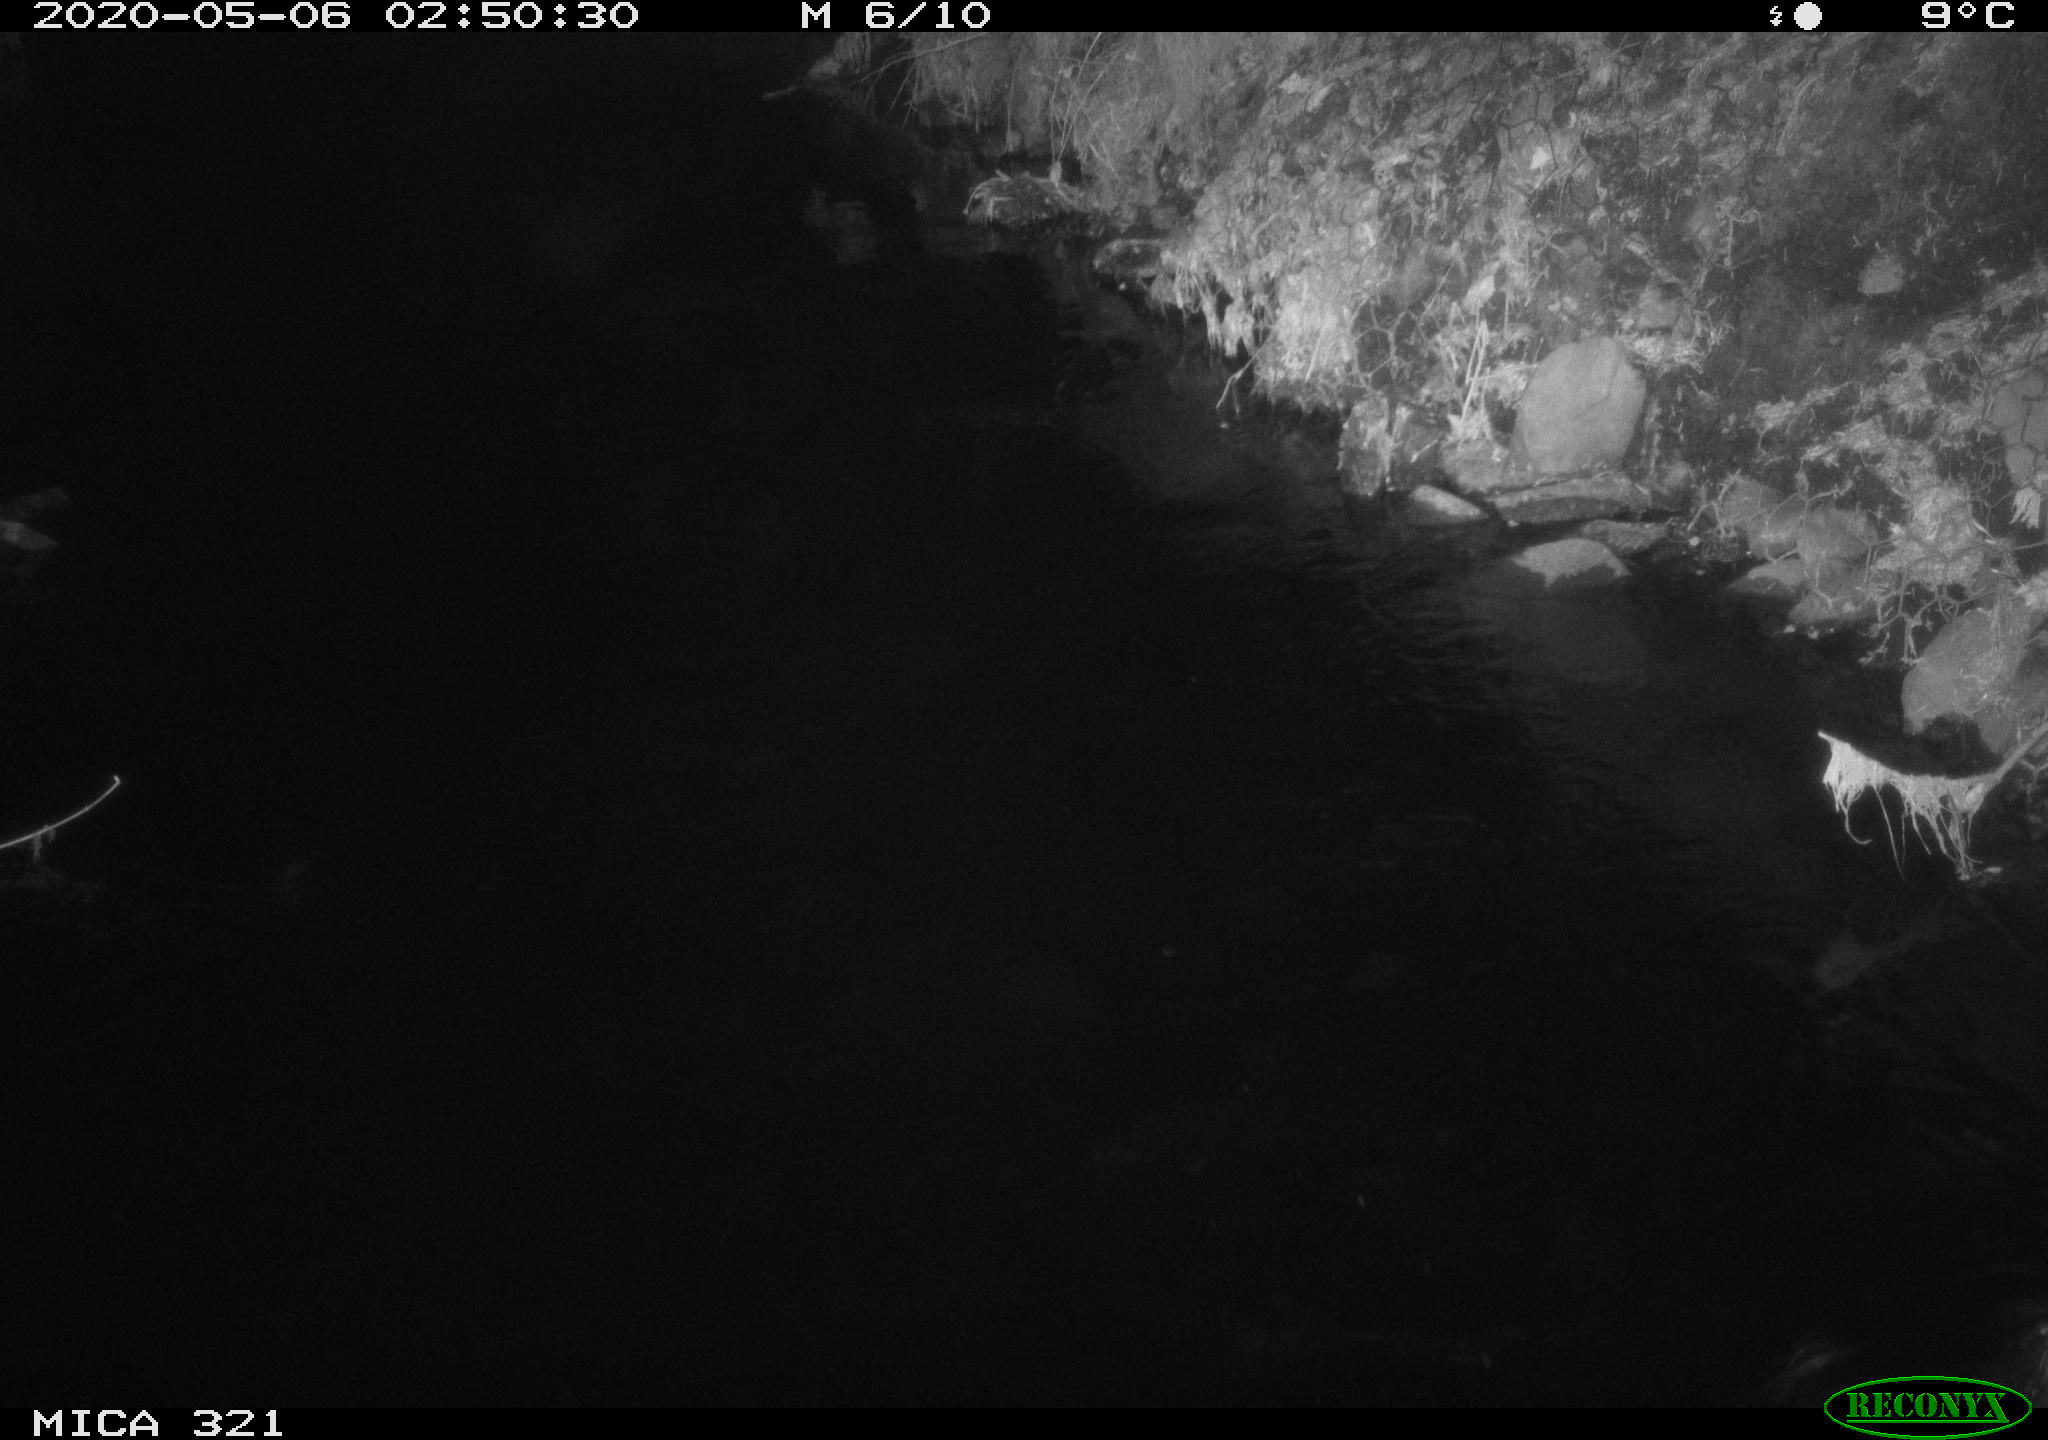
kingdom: Animalia
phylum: Chordata
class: Aves
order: Anseriformes
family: Anatidae
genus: Anas
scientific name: Anas platyrhynchos
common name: Mallard
